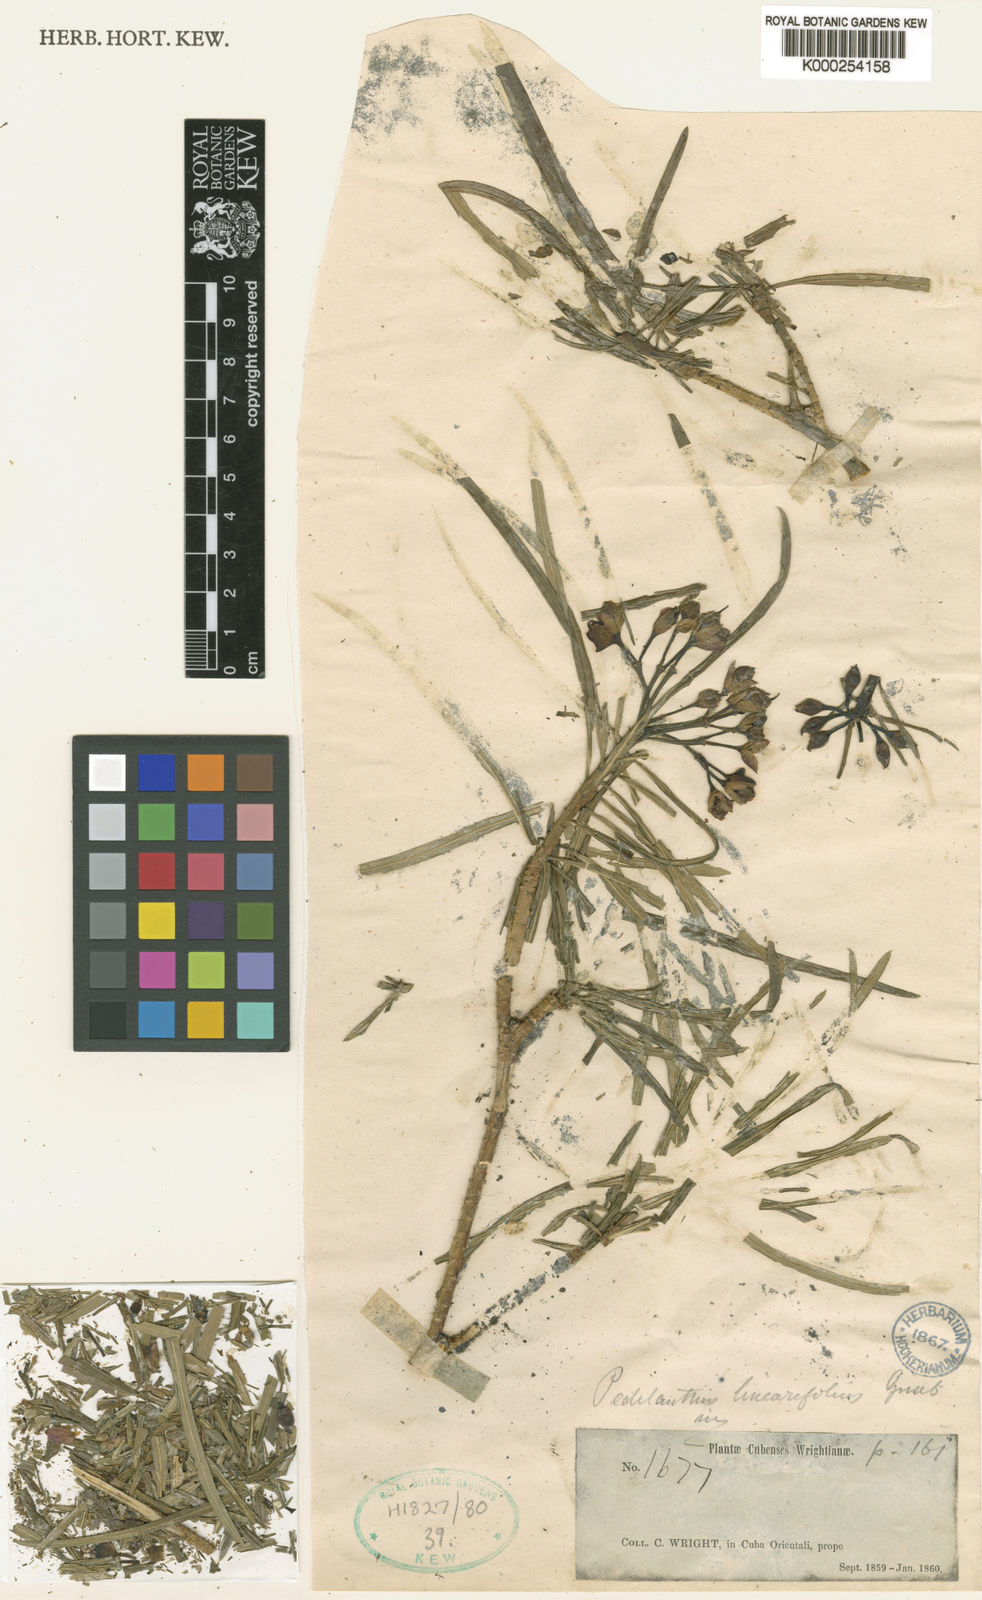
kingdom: Plantae
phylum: Tracheophyta
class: Magnoliopsida
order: Malpighiales
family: Euphorbiaceae
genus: Euphorbia
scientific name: Euphorbia scutiformis
